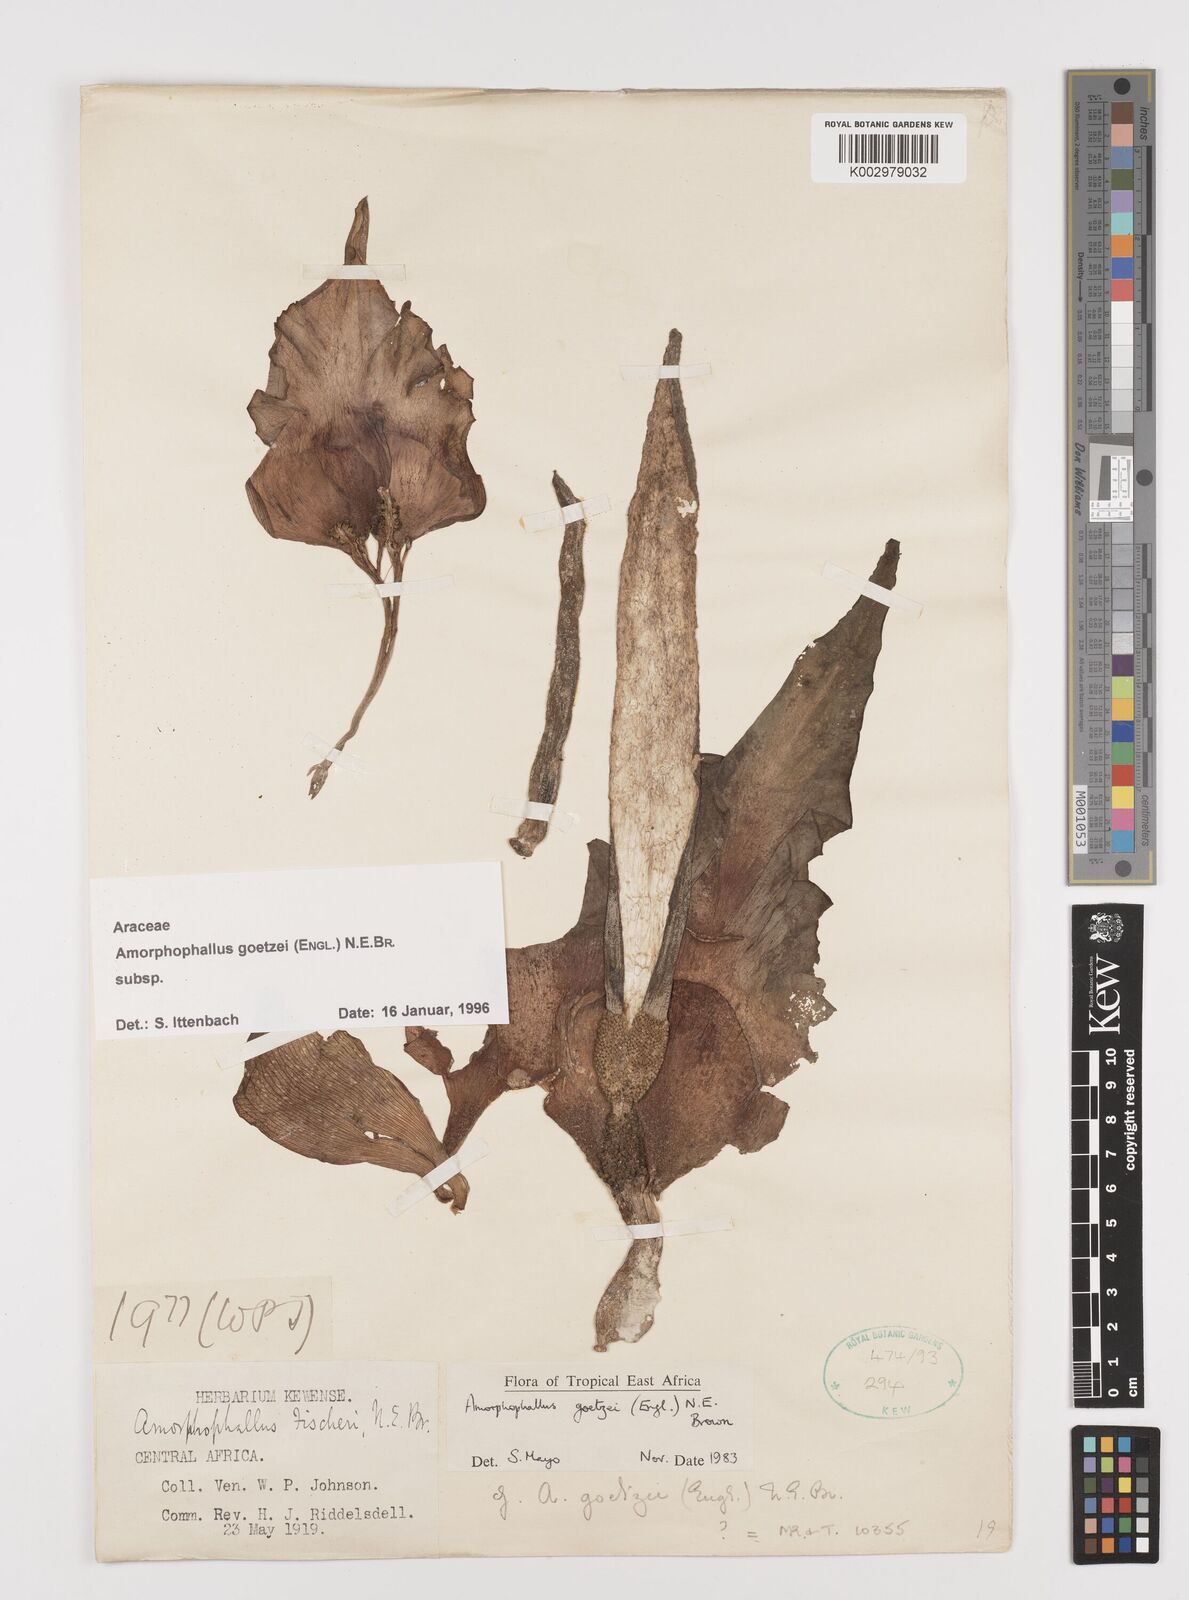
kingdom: Plantae
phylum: Tracheophyta
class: Liliopsida
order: Alismatales
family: Araceae
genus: Amorphophallus
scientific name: Amorphophallus goetzei
